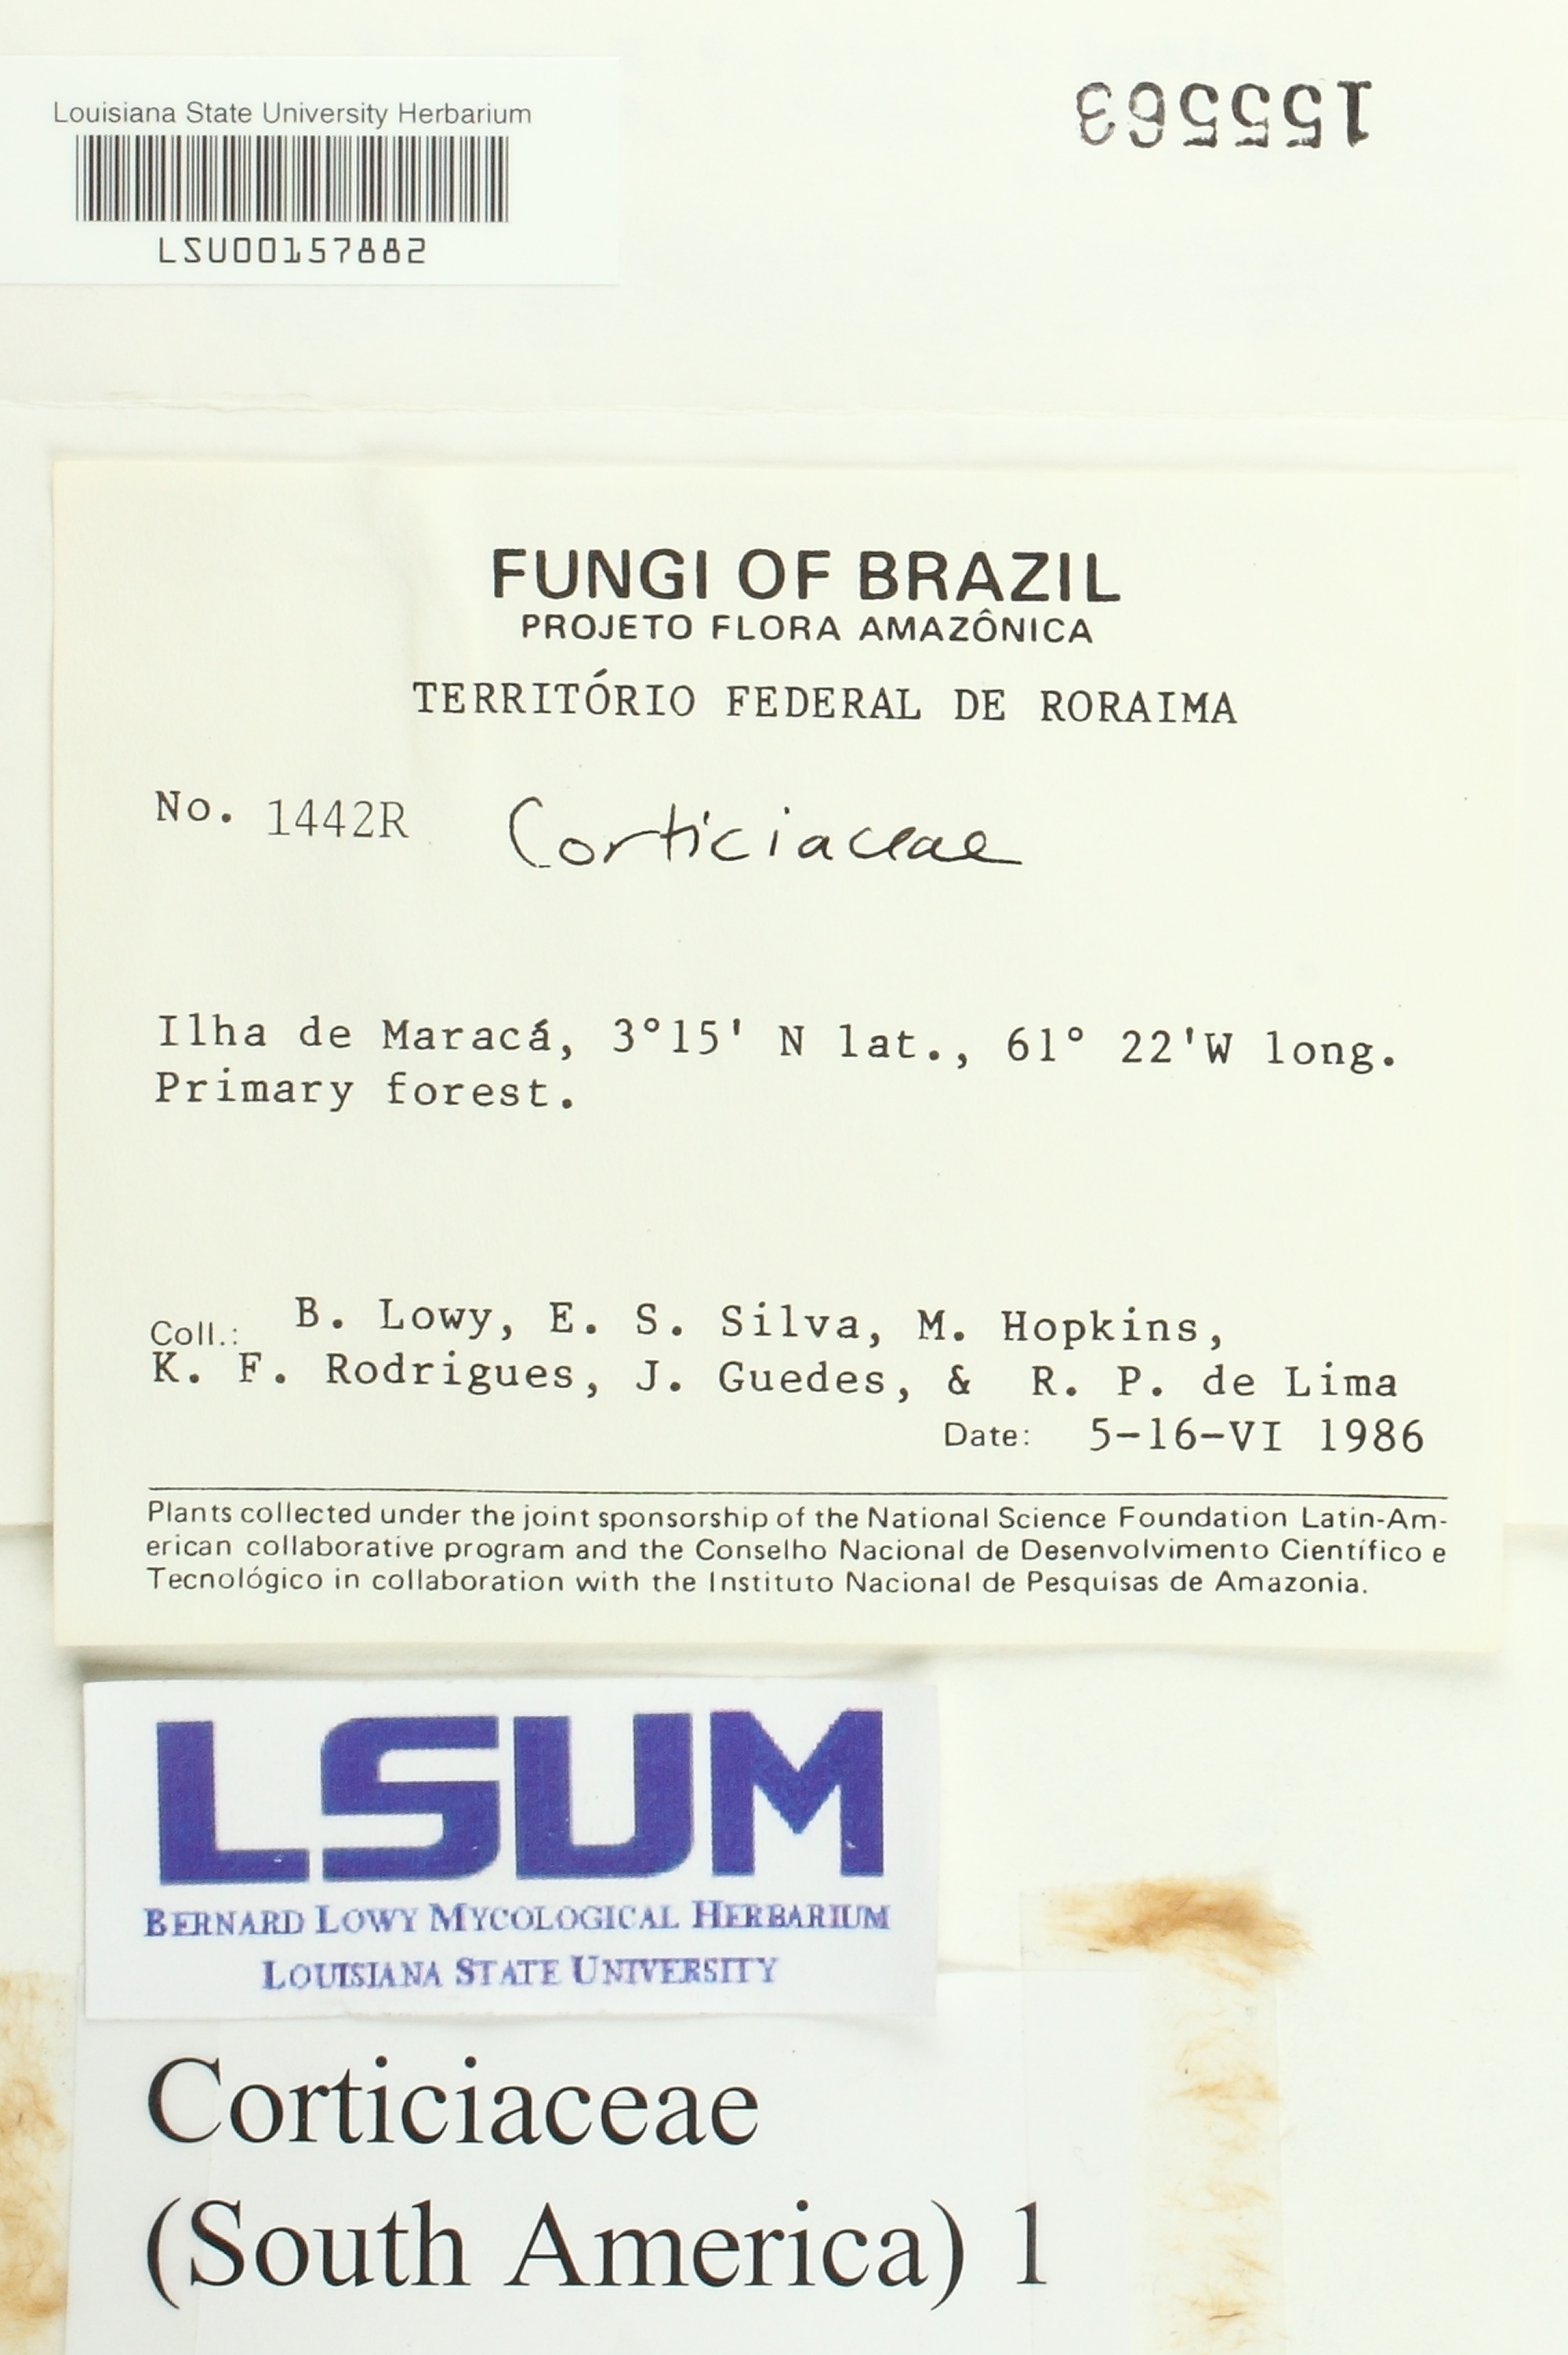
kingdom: Fungi
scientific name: Fungi
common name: Fungi
